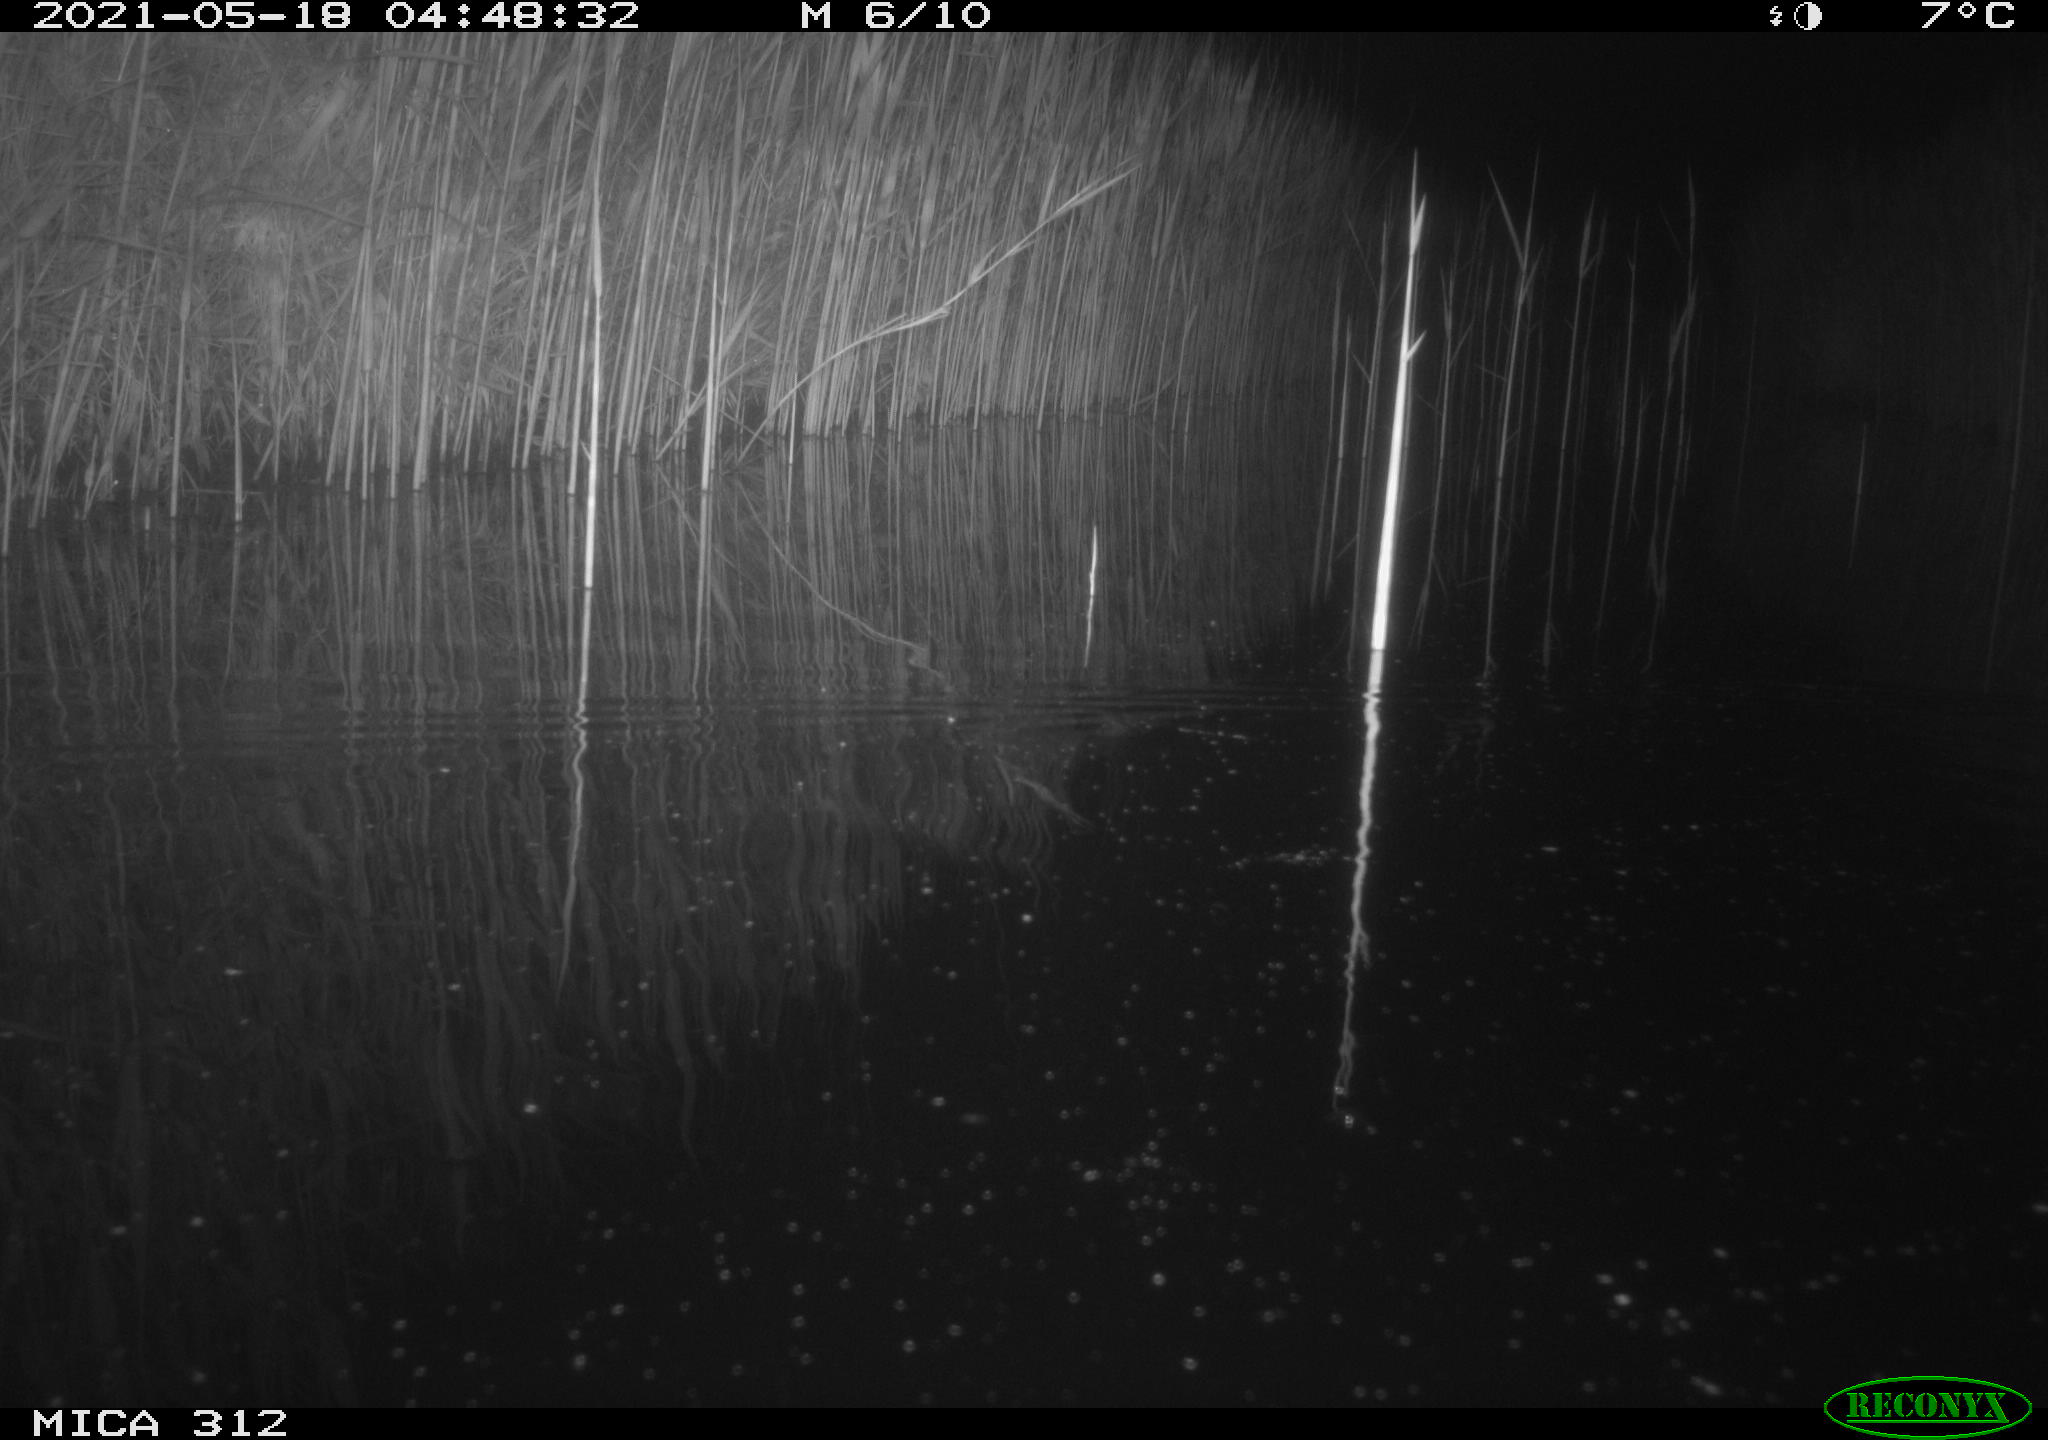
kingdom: Animalia
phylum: Chordata
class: Mammalia
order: Rodentia
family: Muridae
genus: Rattus
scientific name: Rattus norvegicus
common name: Brown rat
